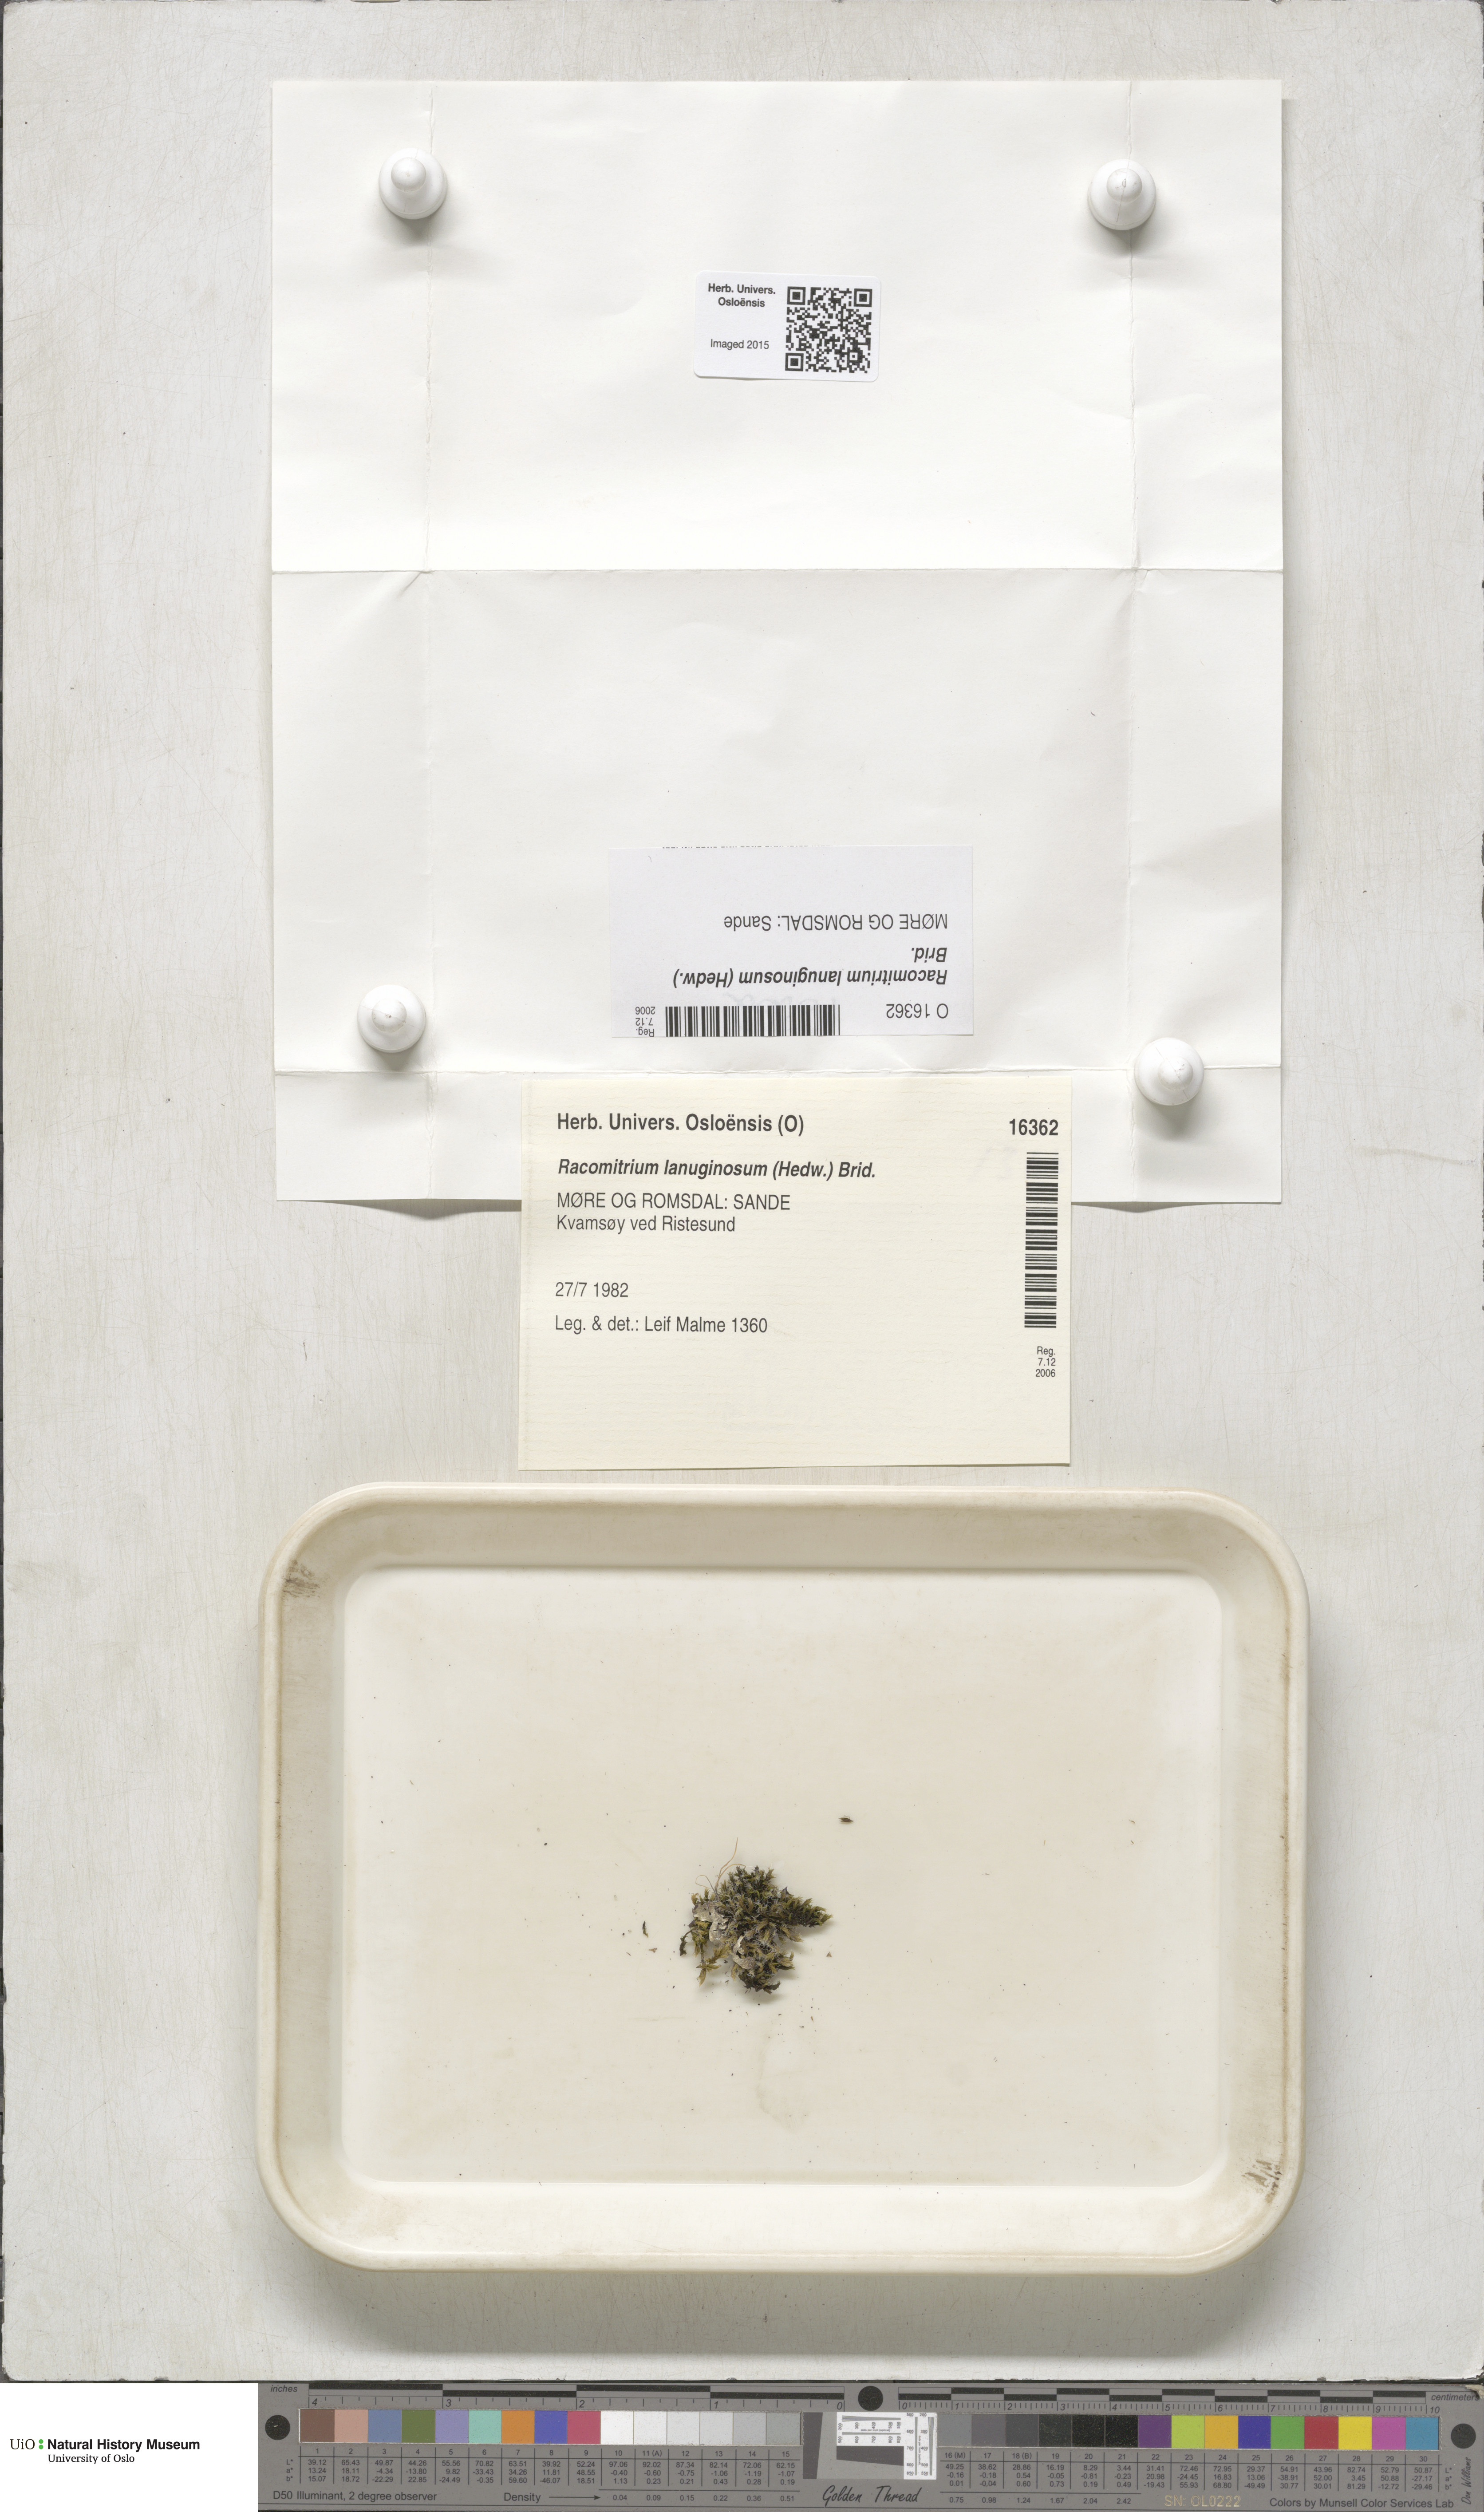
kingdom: Plantae
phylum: Bryophyta
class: Bryopsida
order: Grimmiales
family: Grimmiaceae
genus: Racomitrium
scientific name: Racomitrium lanuginosum
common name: Hoary rock moss
